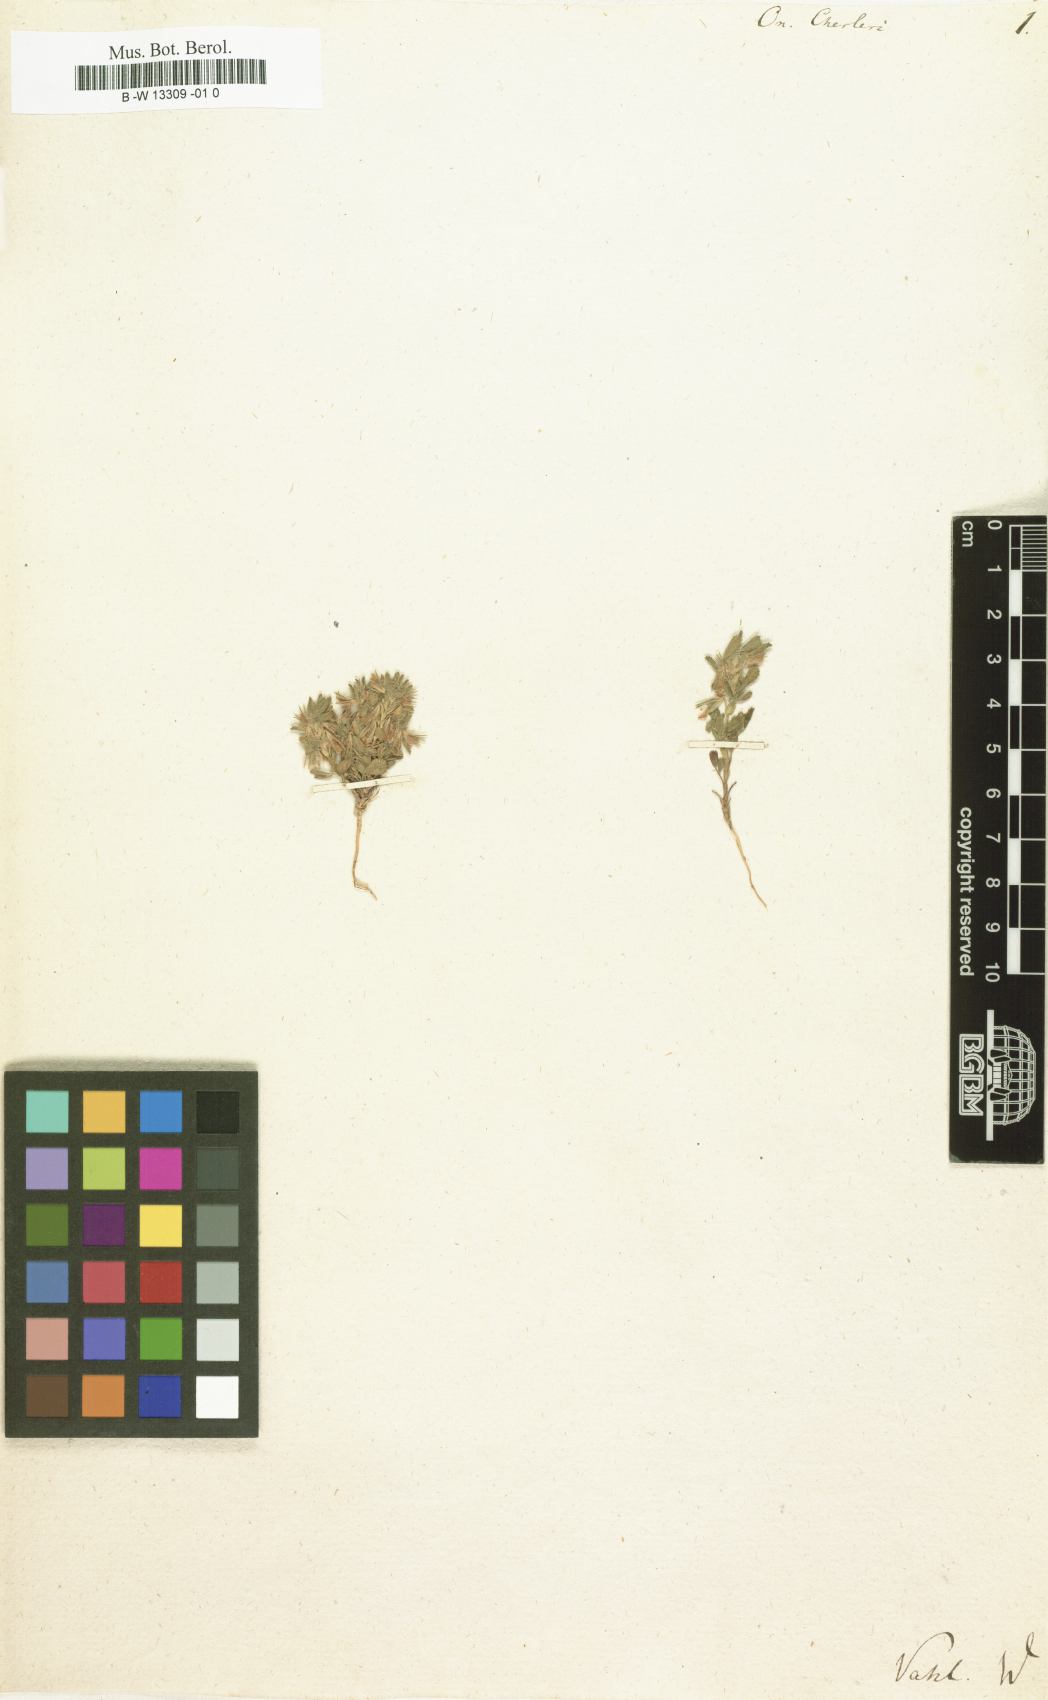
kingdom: Plantae
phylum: Tracheophyta
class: Magnoliopsida
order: Fabales
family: Fabaceae
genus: Ononis
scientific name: Ononis cherleri
